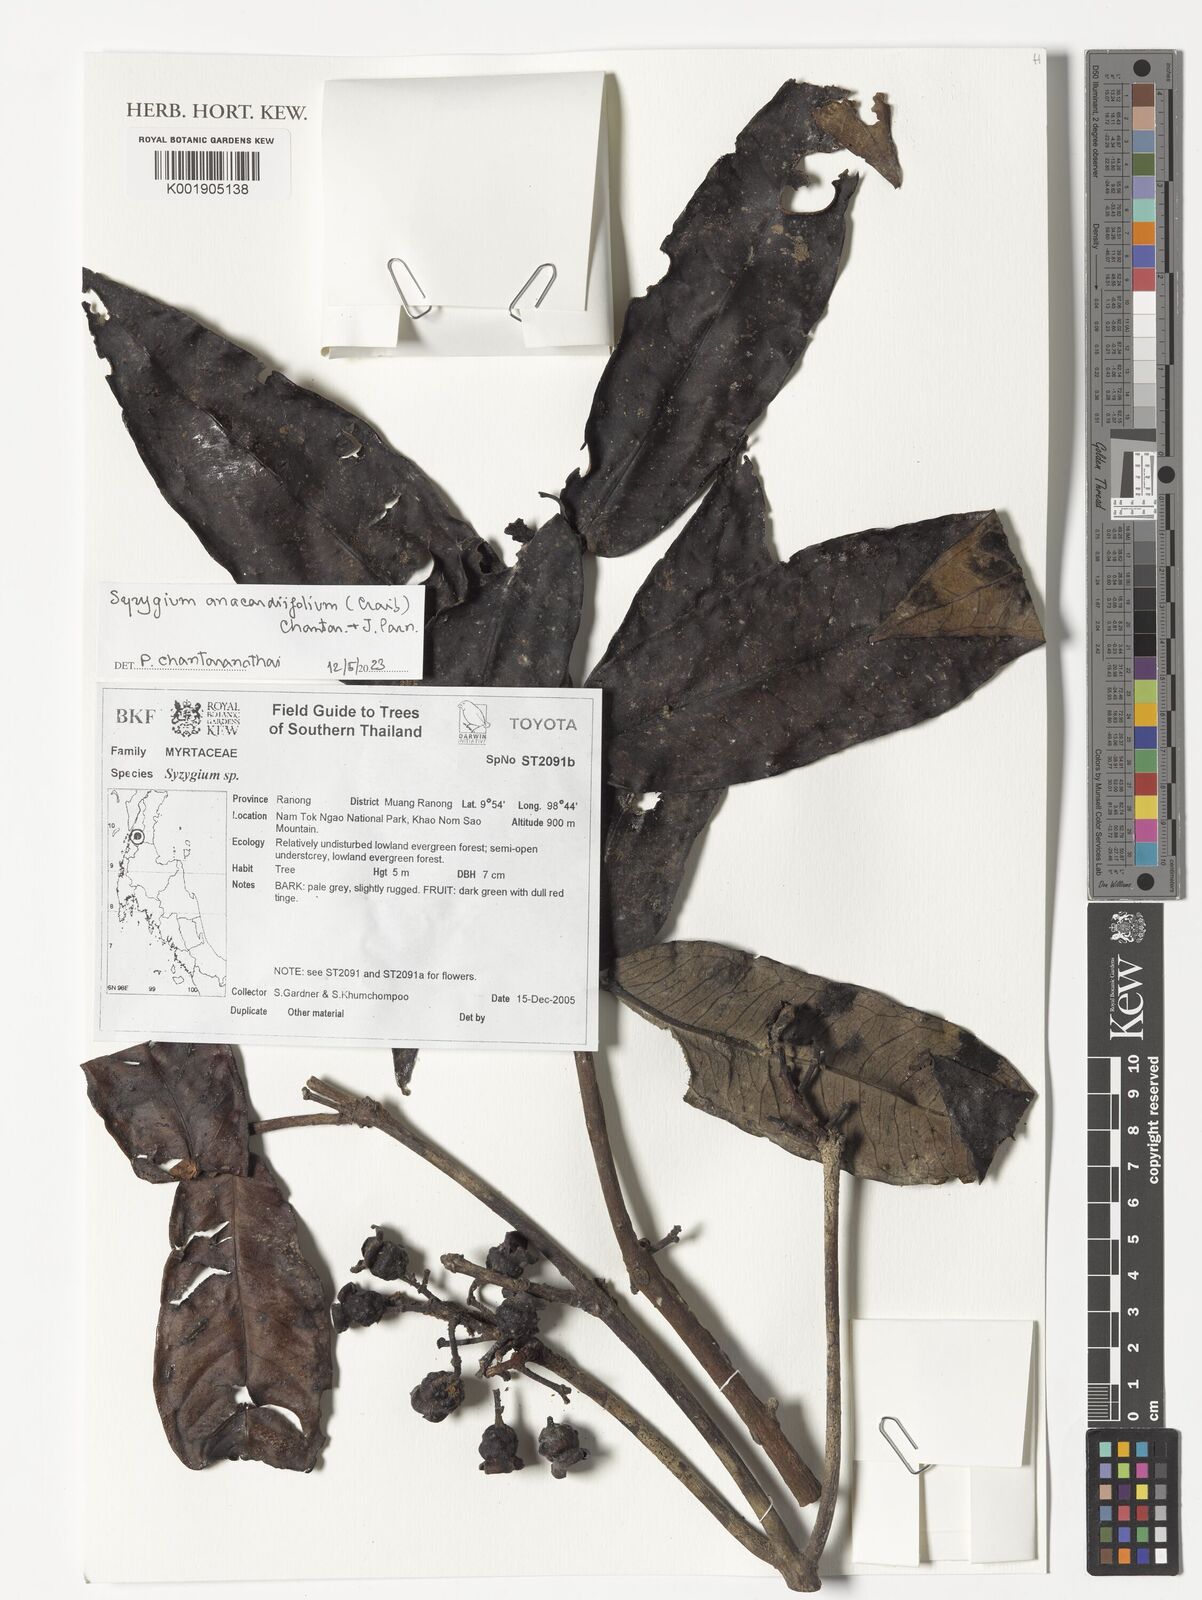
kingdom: Plantae
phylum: Tracheophyta
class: Magnoliopsida
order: Myrtales
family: Myrtaceae
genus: Syzygium
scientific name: Syzygium anacardiifolium
